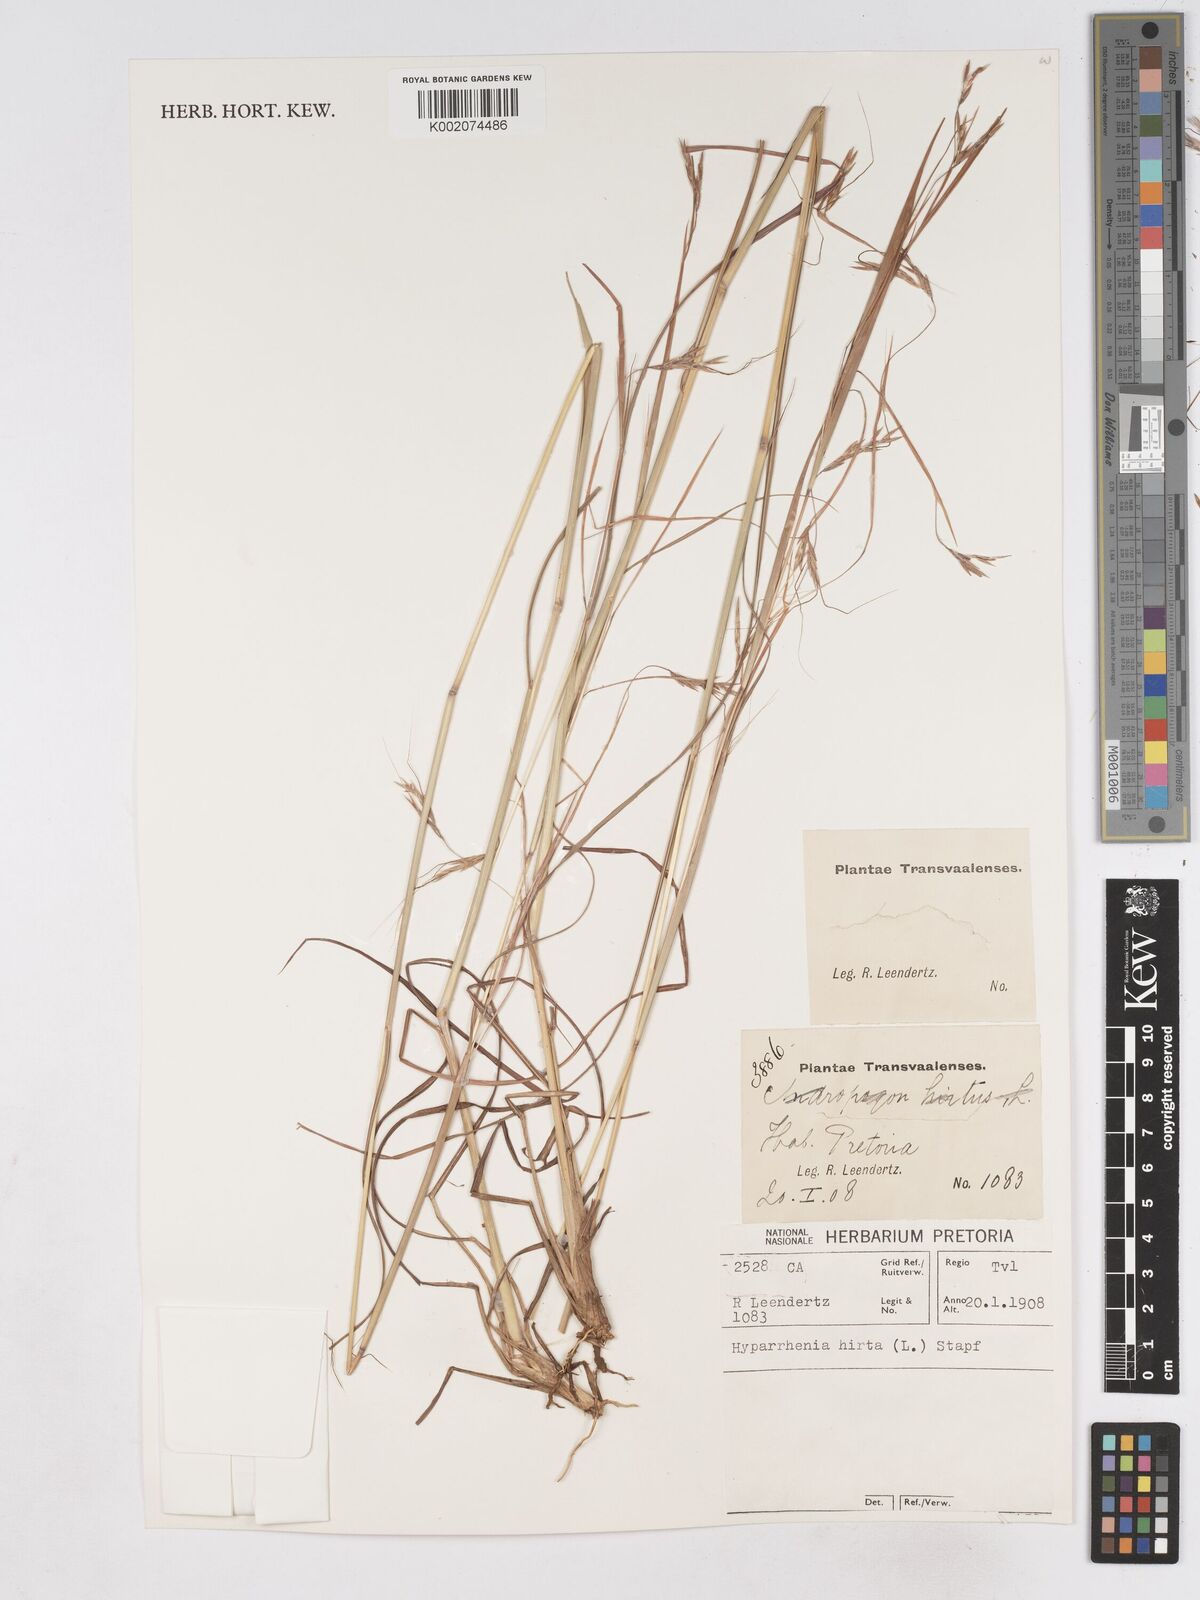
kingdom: Plantae
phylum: Tracheophyta
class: Liliopsida
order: Poales
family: Poaceae
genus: Hyparrhenia
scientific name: Hyparrhenia hirta
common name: Thatching grass
